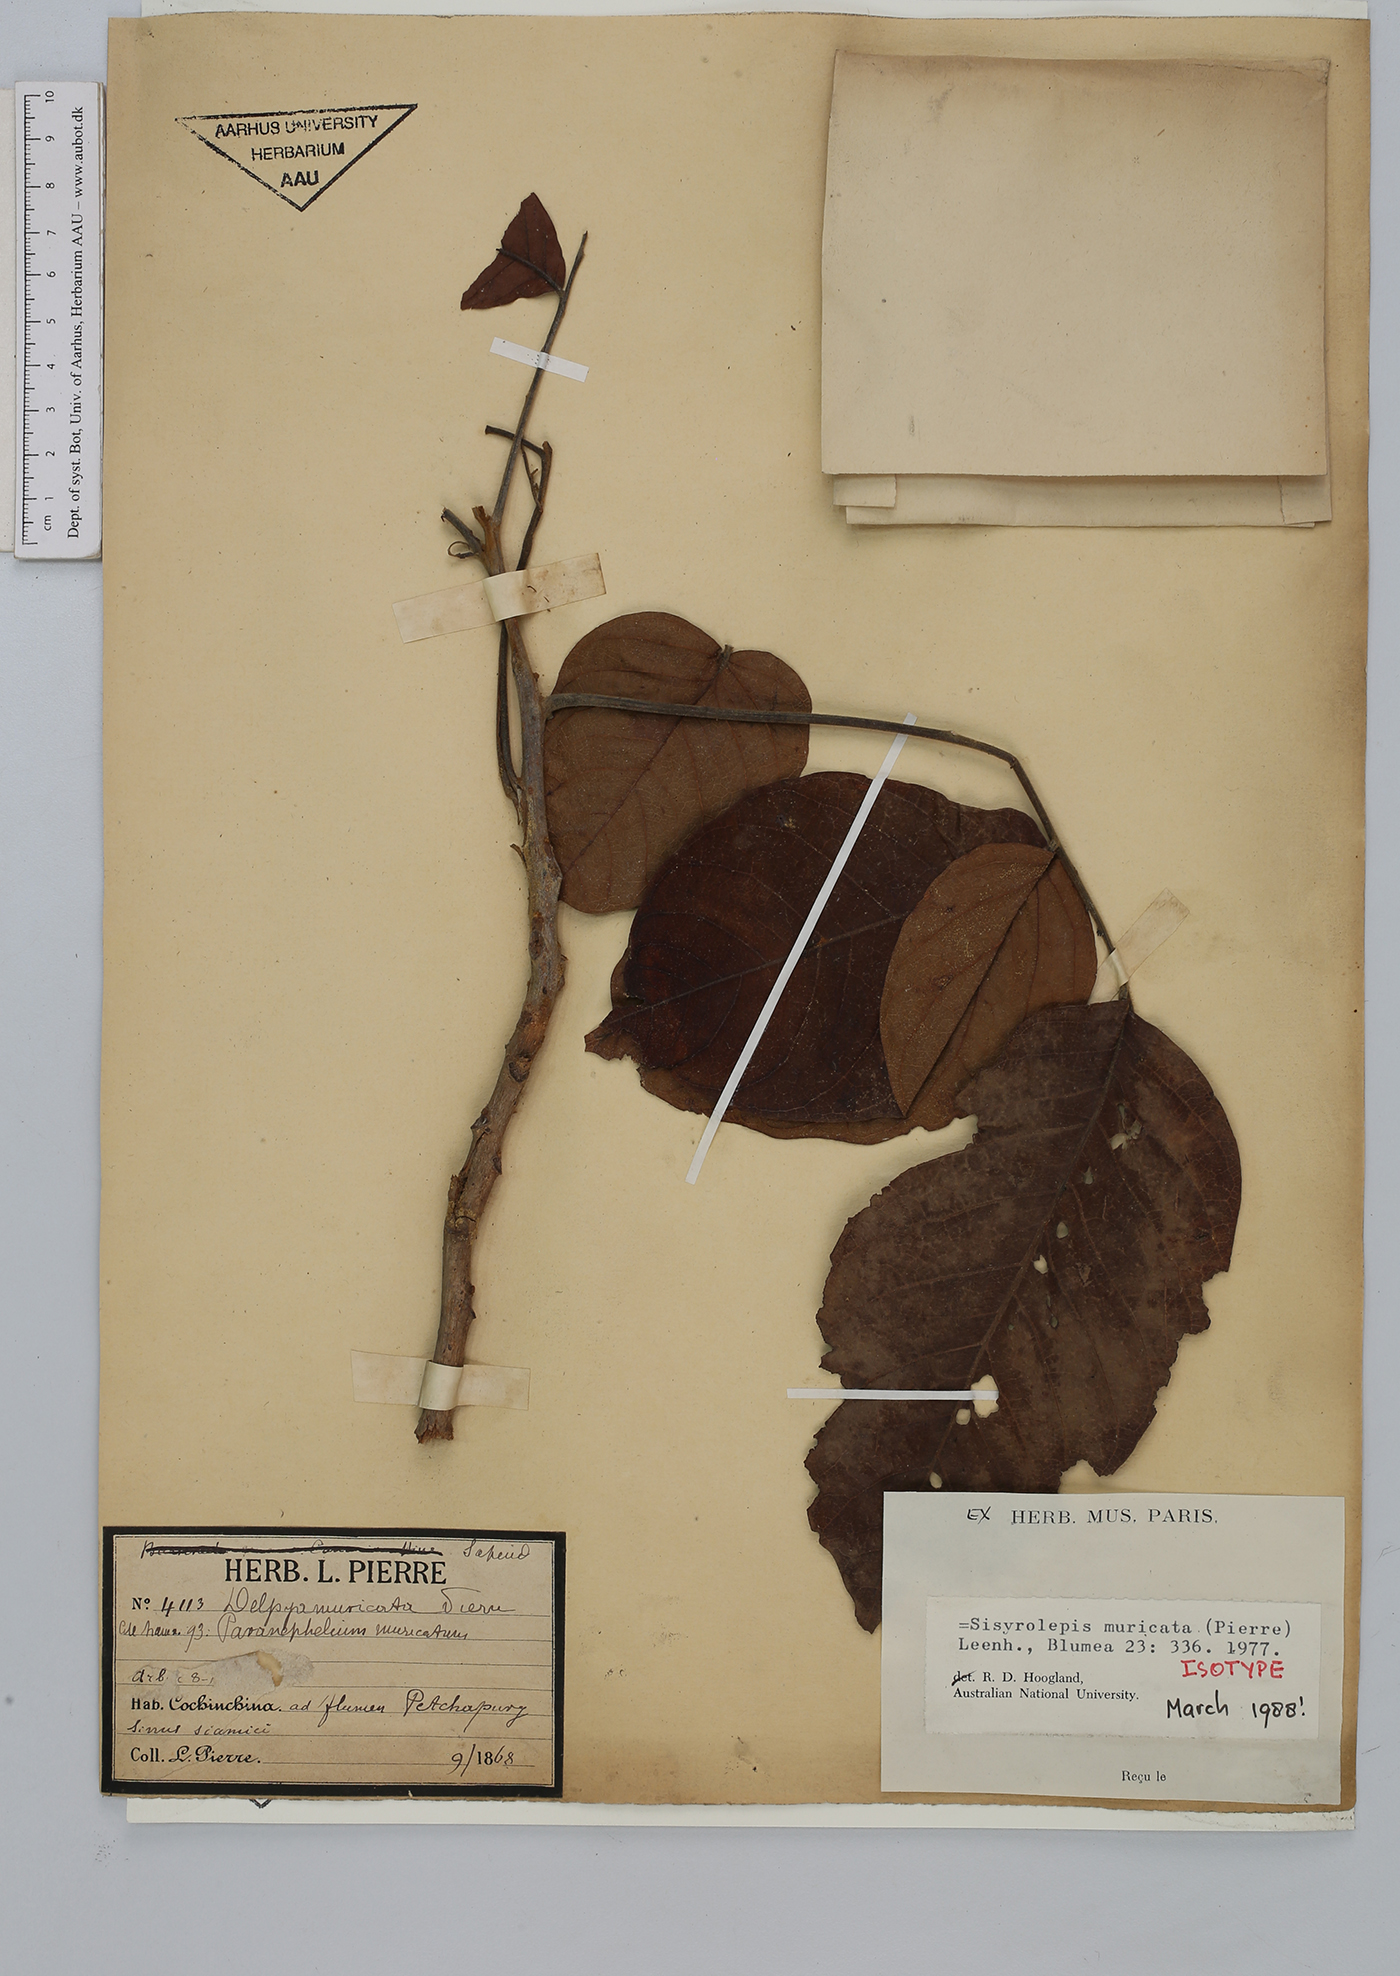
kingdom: Plantae
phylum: Tracheophyta
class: Magnoliopsida
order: Sapindales
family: Sapindaceae
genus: Sisyrolepis
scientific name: Sisyrolepis muricata
